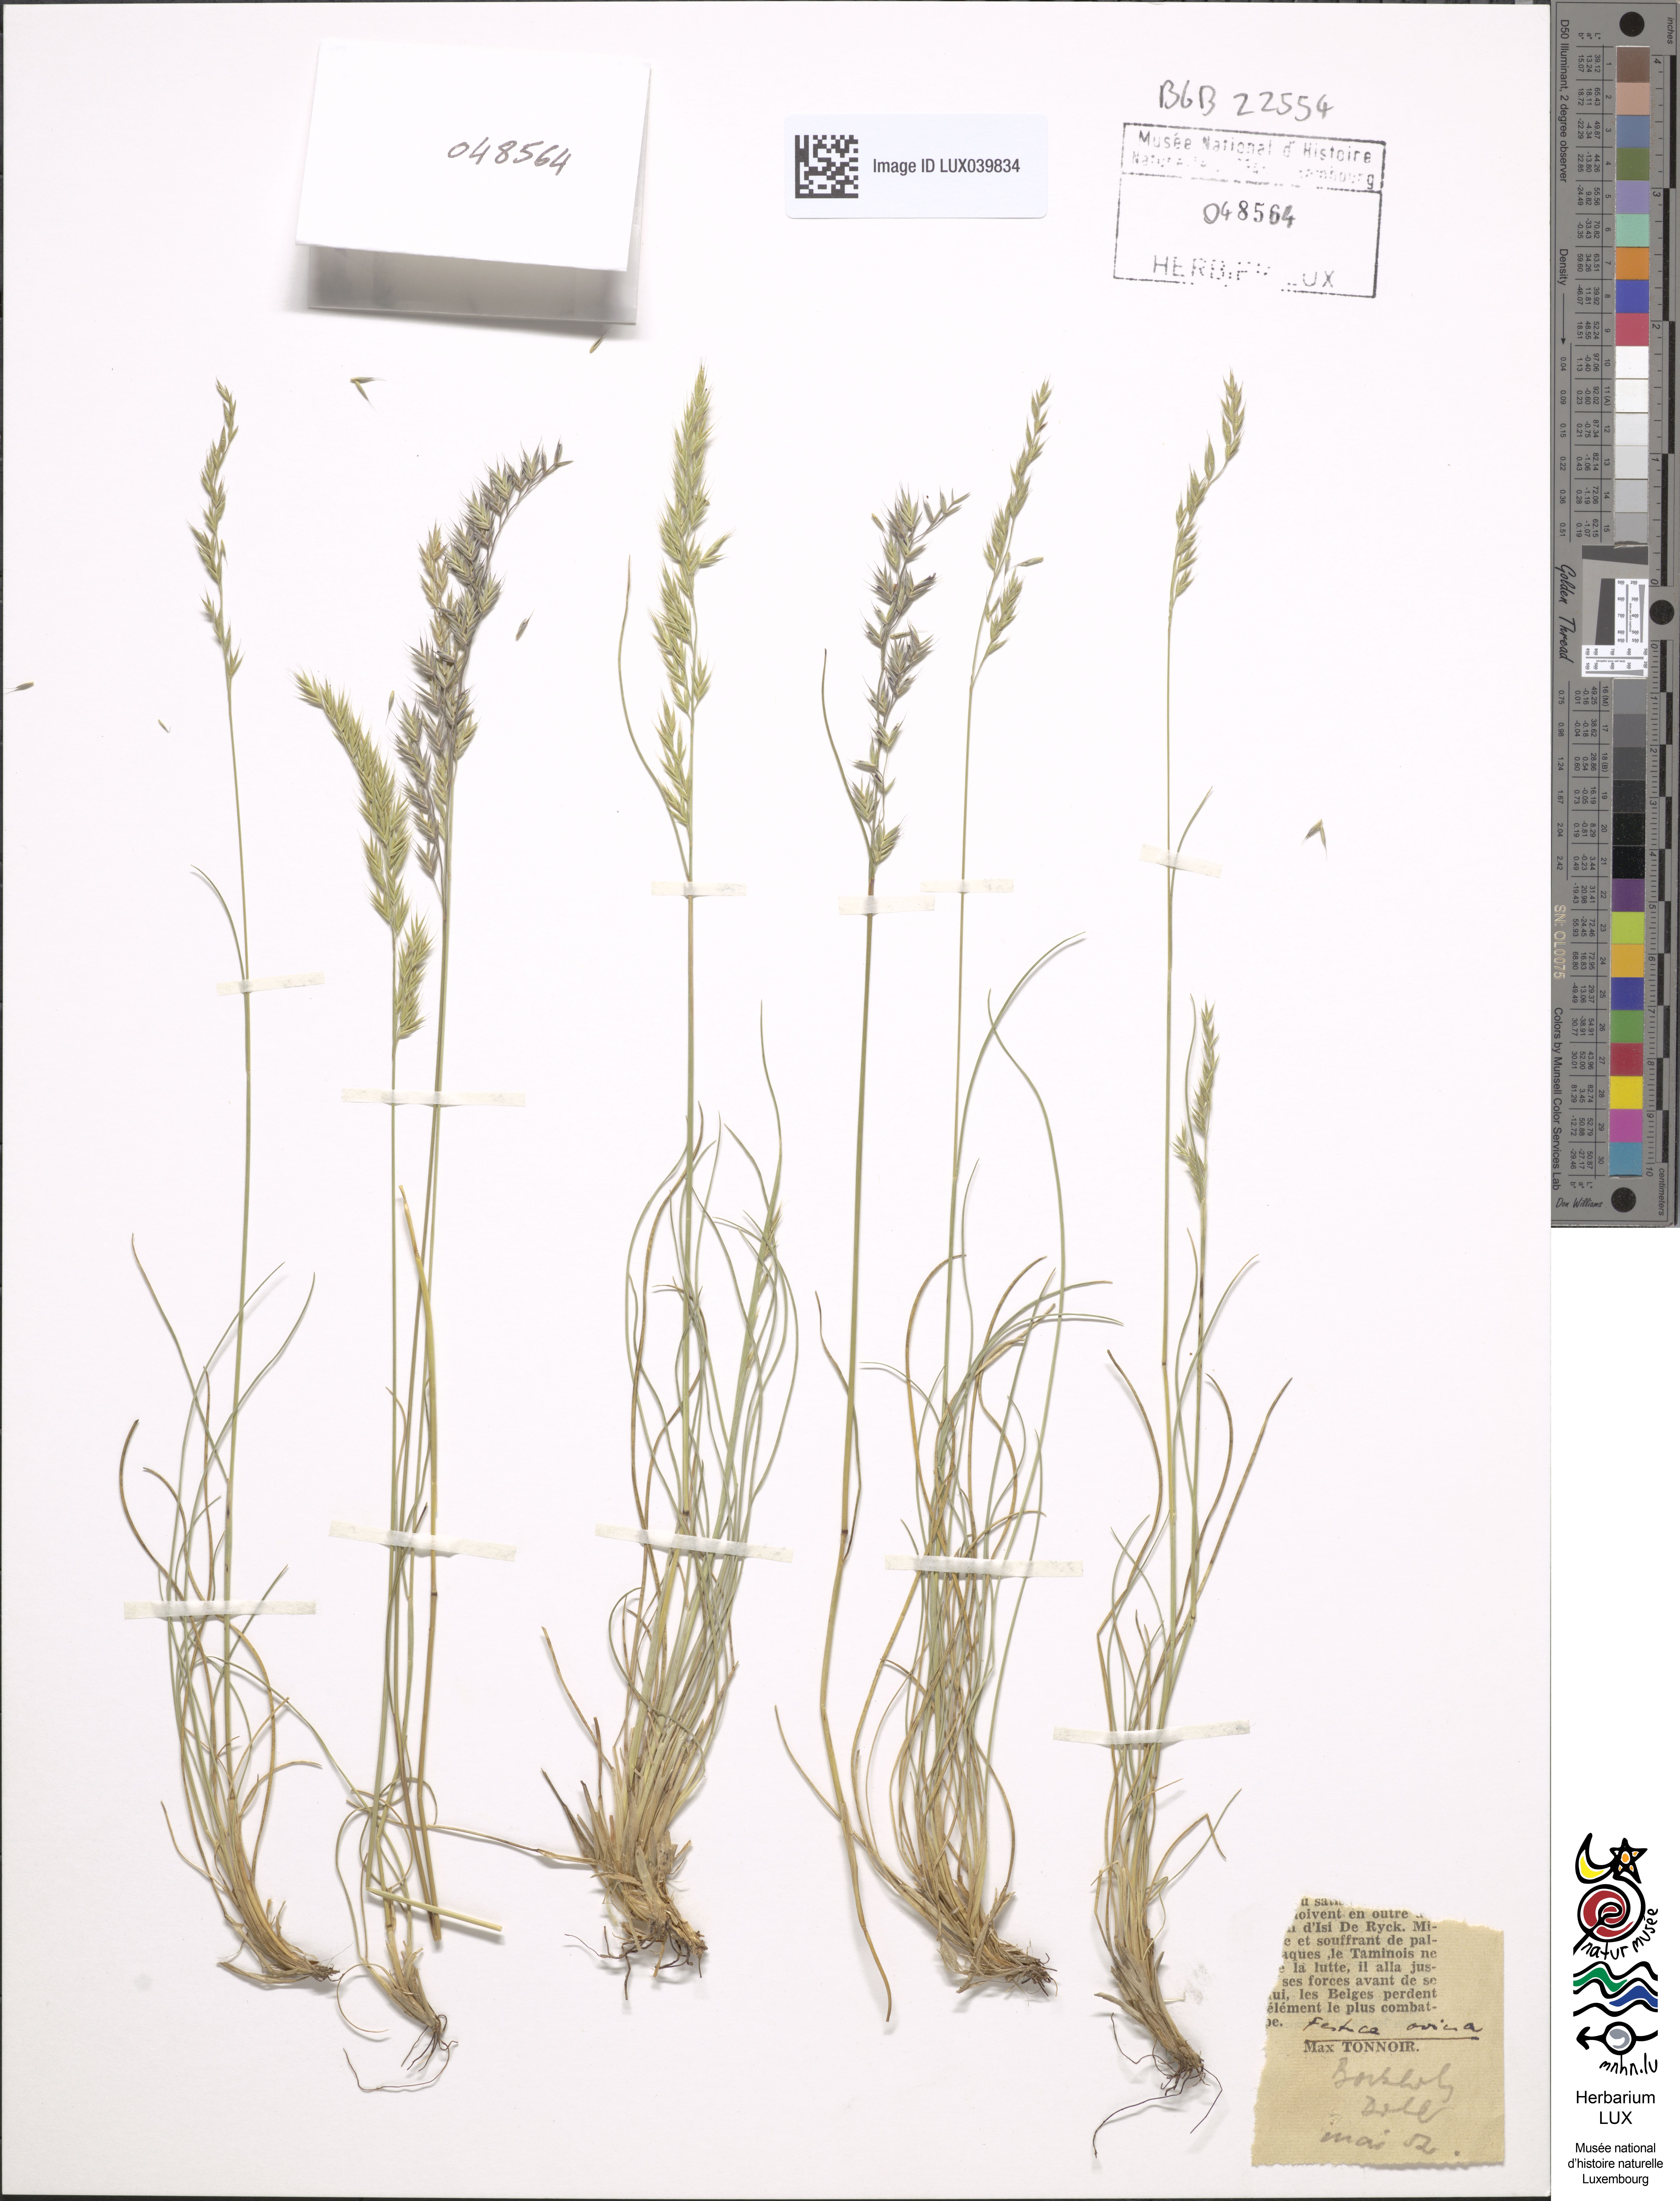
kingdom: Plantae
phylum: Tracheophyta
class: Liliopsida
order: Poales
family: Poaceae
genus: Festuca
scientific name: Festuca ovina
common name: Sheep fescue
